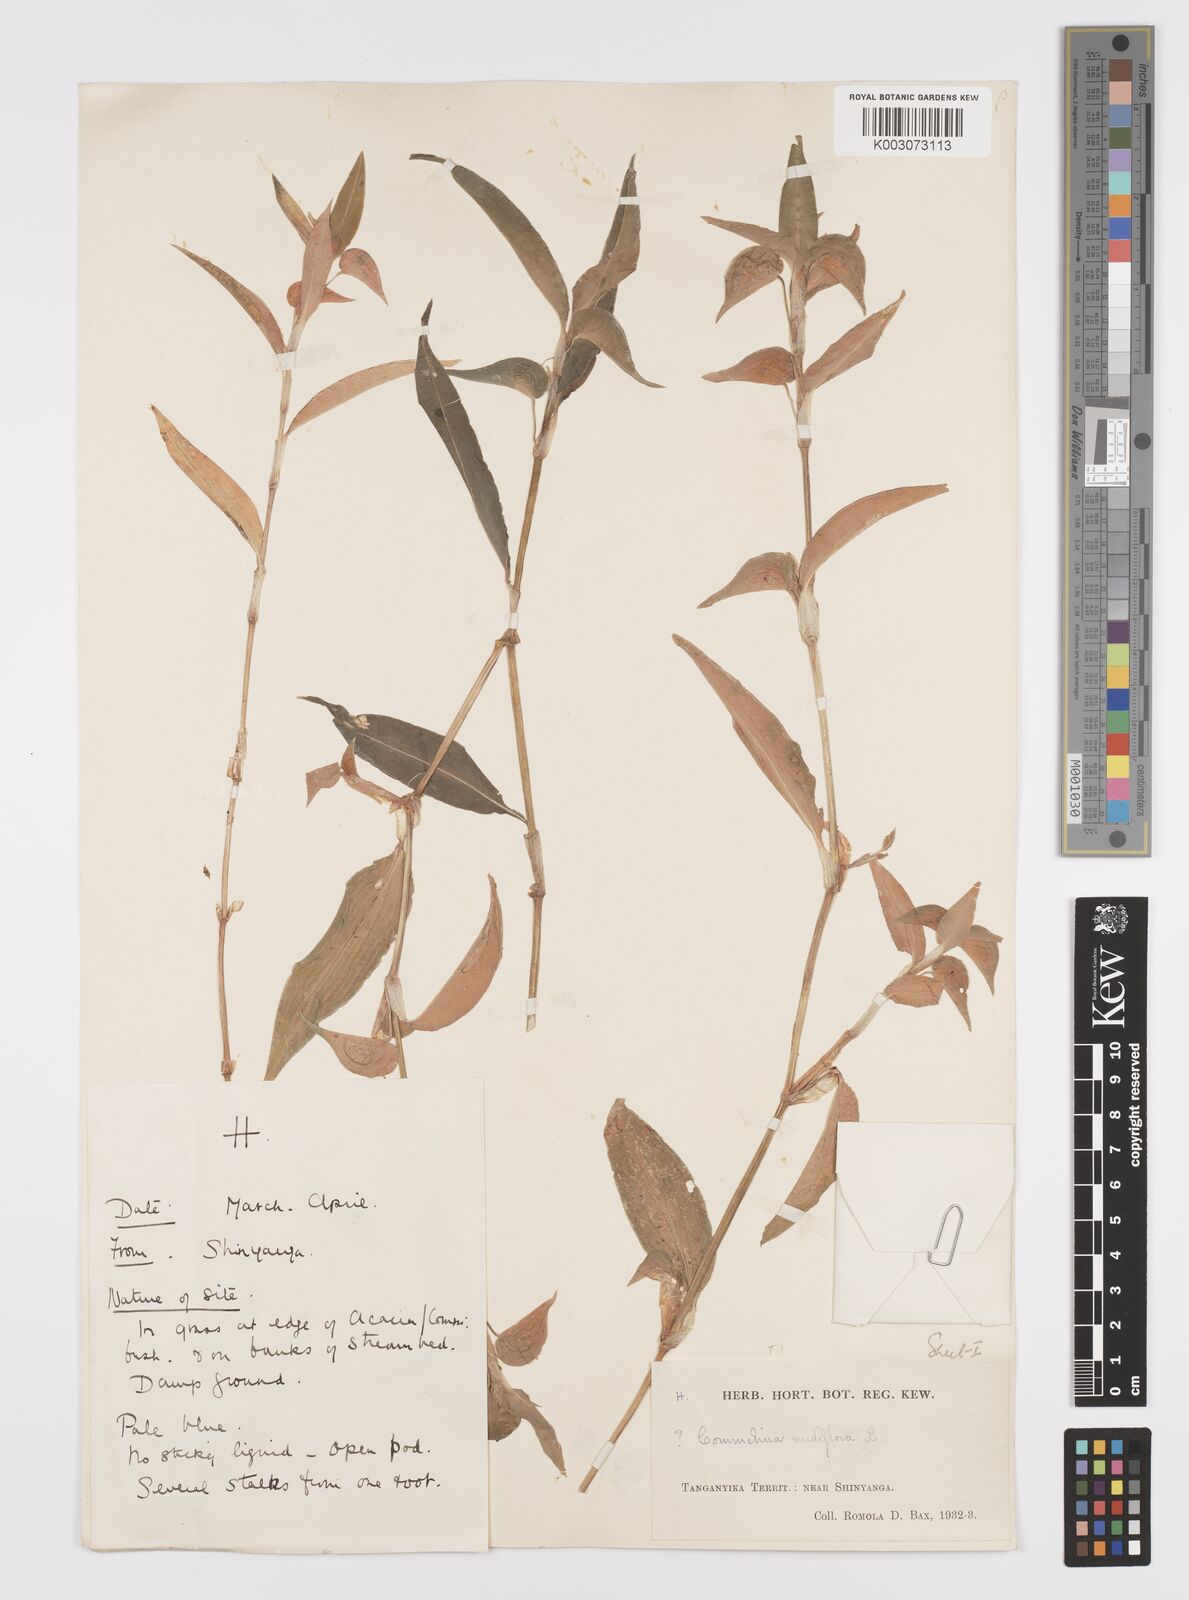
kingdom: Plantae
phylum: Tracheophyta
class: Liliopsida
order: Commelinales
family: Commelinaceae
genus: Commelina
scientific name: Commelina diffusa
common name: Climbing dayflower
